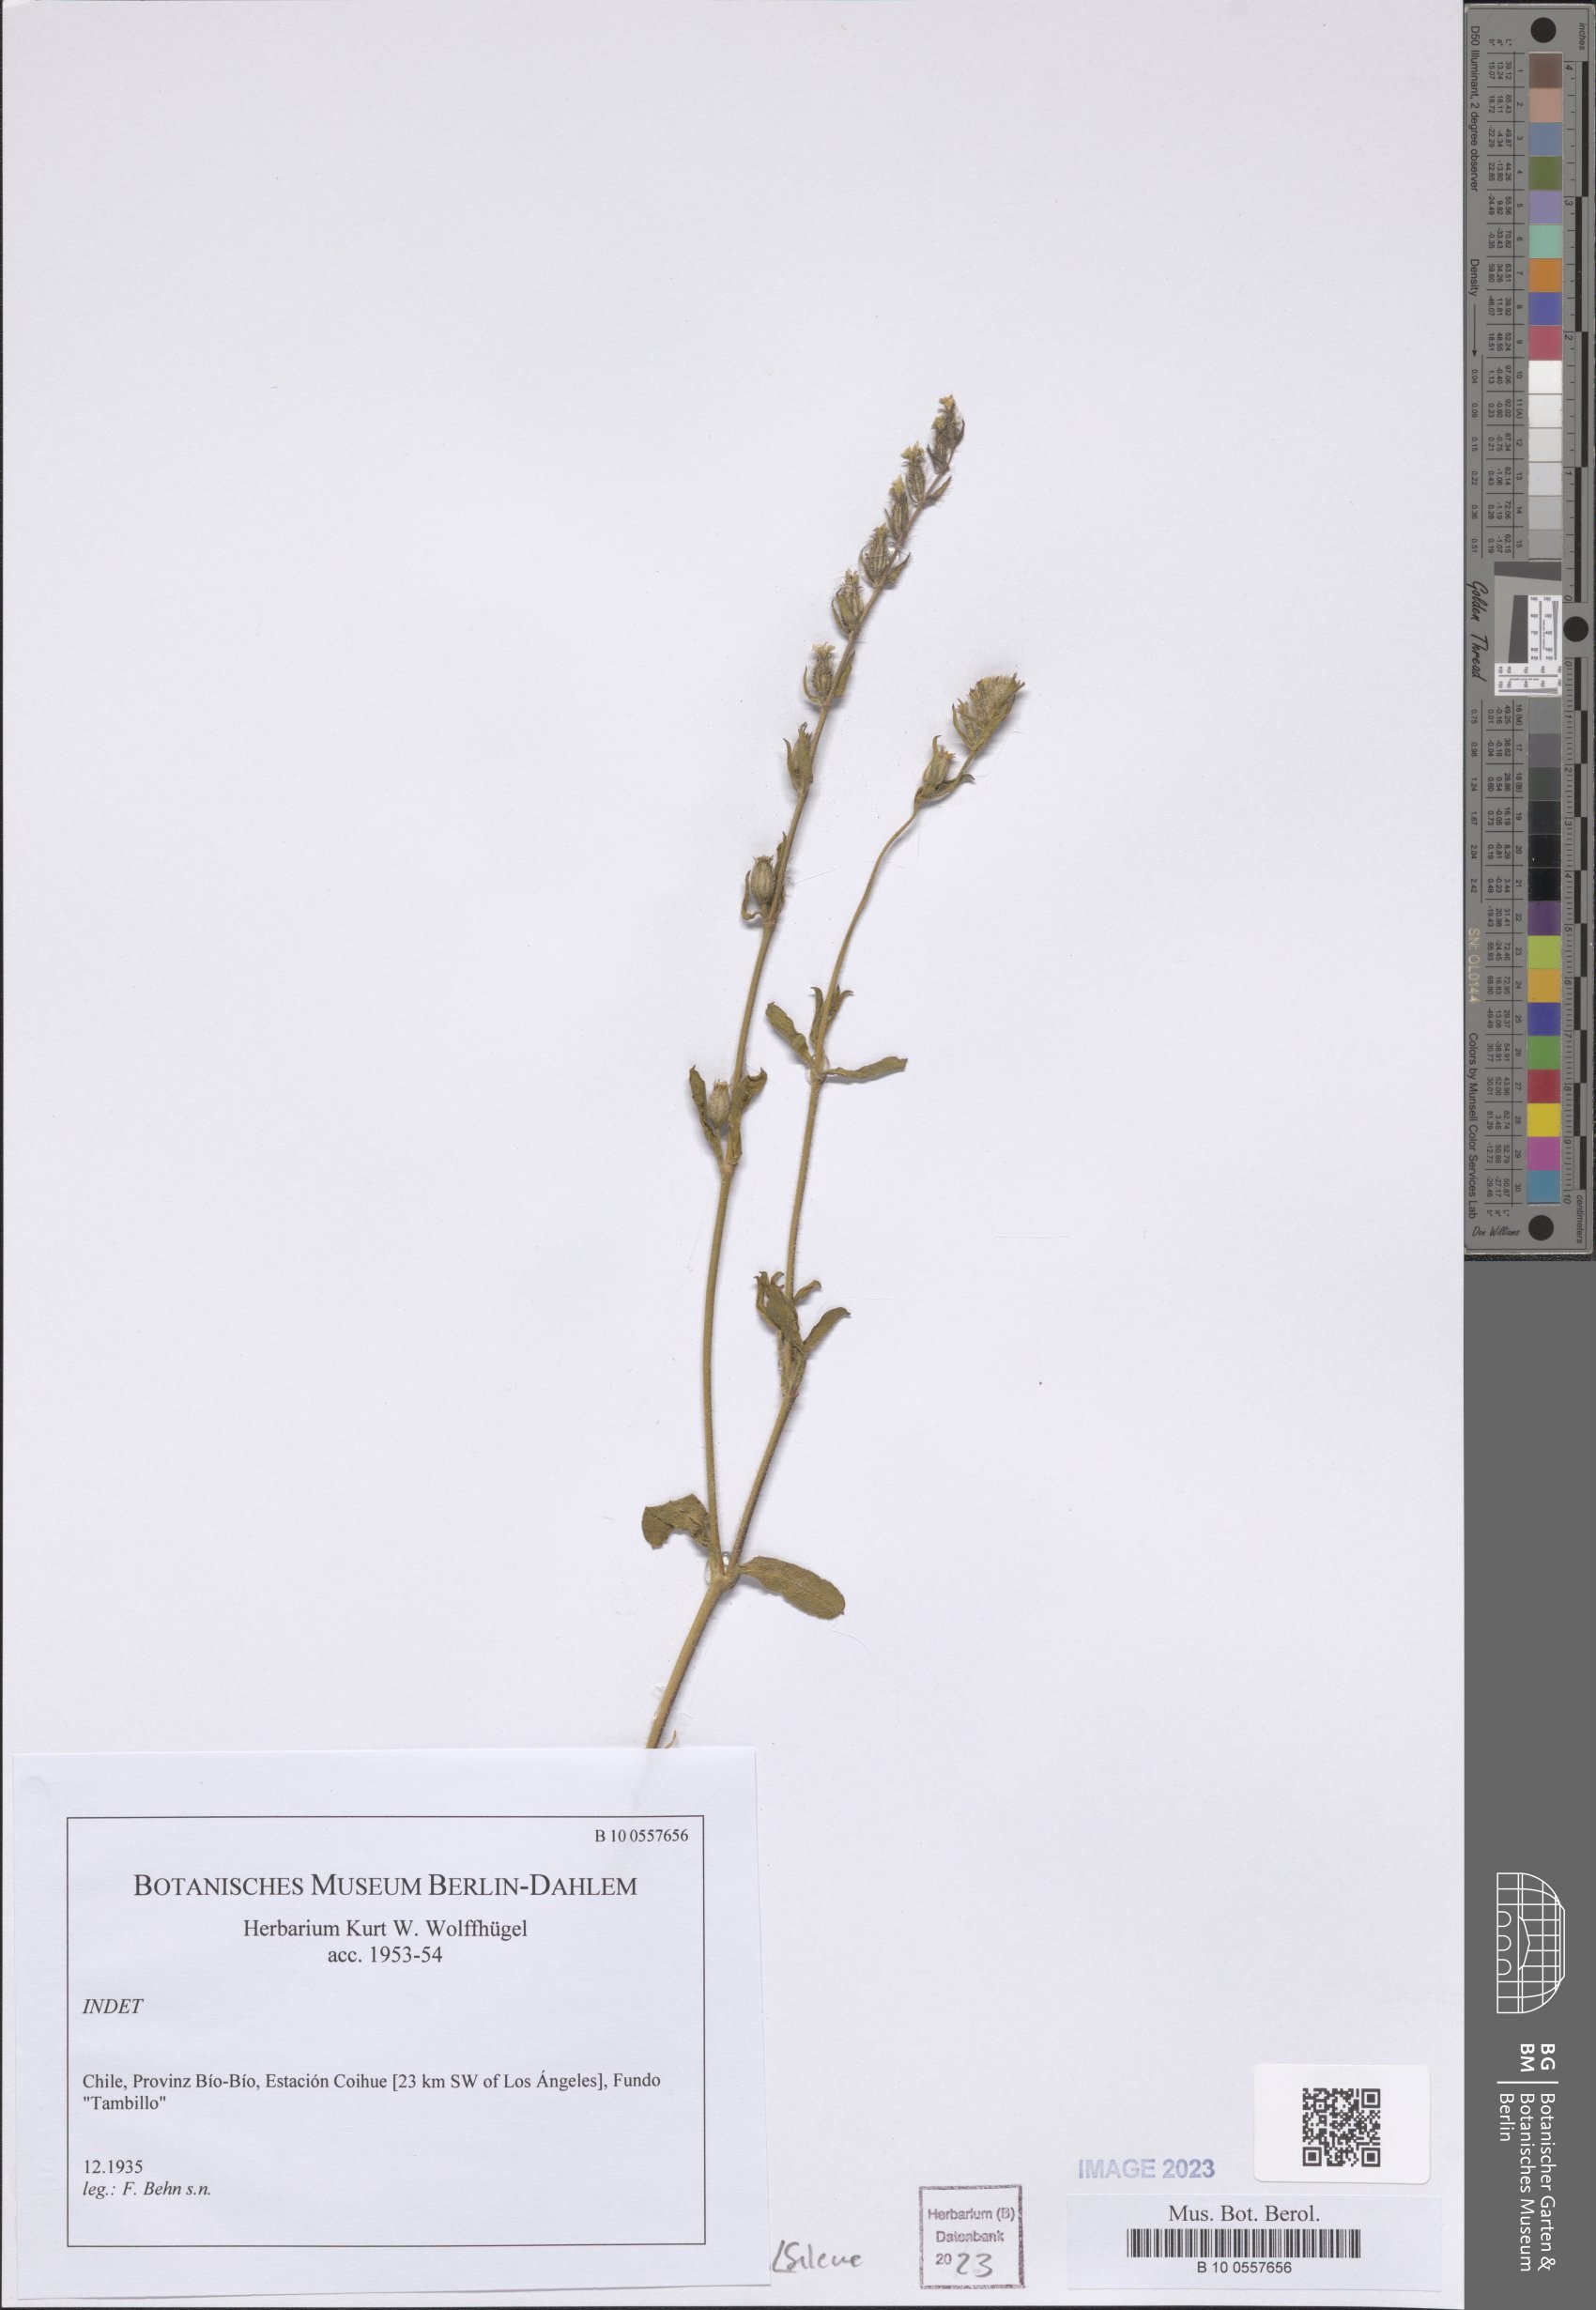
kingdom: Plantae
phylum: Tracheophyta
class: Magnoliopsida
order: Caryophyllales
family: Caryophyllaceae
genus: Silene
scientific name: Silene
